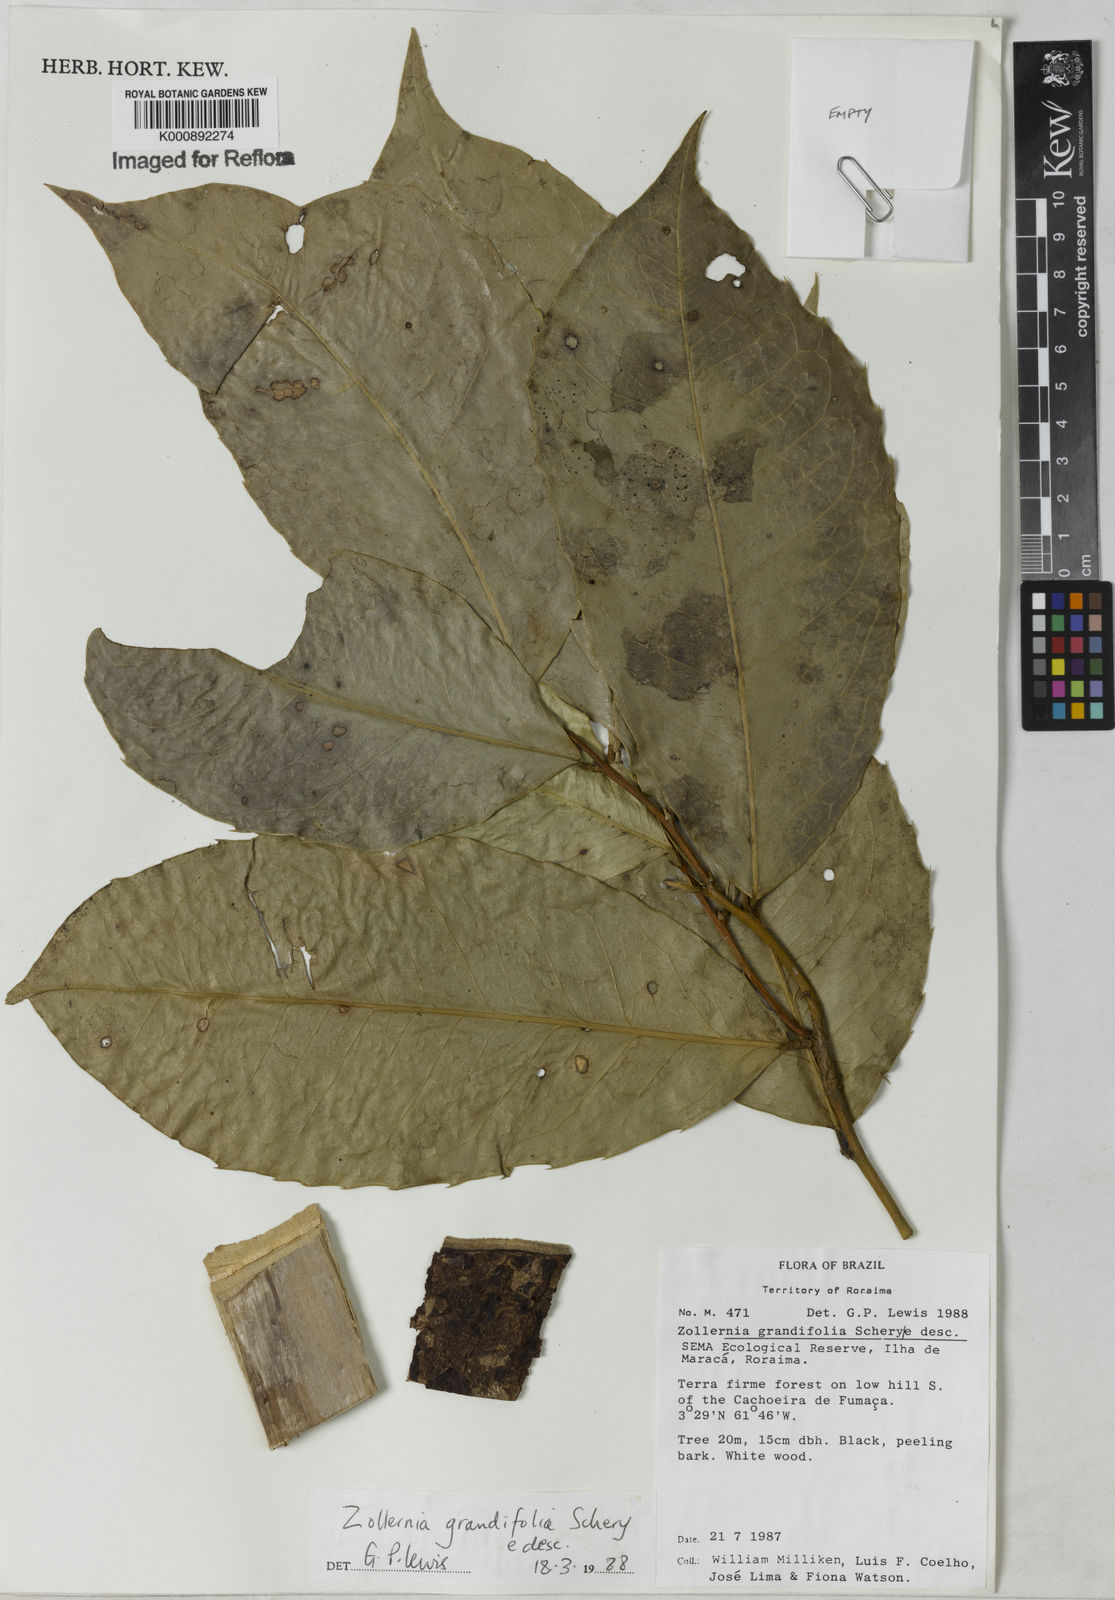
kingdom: Plantae
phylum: Tracheophyta
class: Magnoliopsida
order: Fabales
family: Fabaceae
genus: Zollernia
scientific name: Zollernia grandifolia
